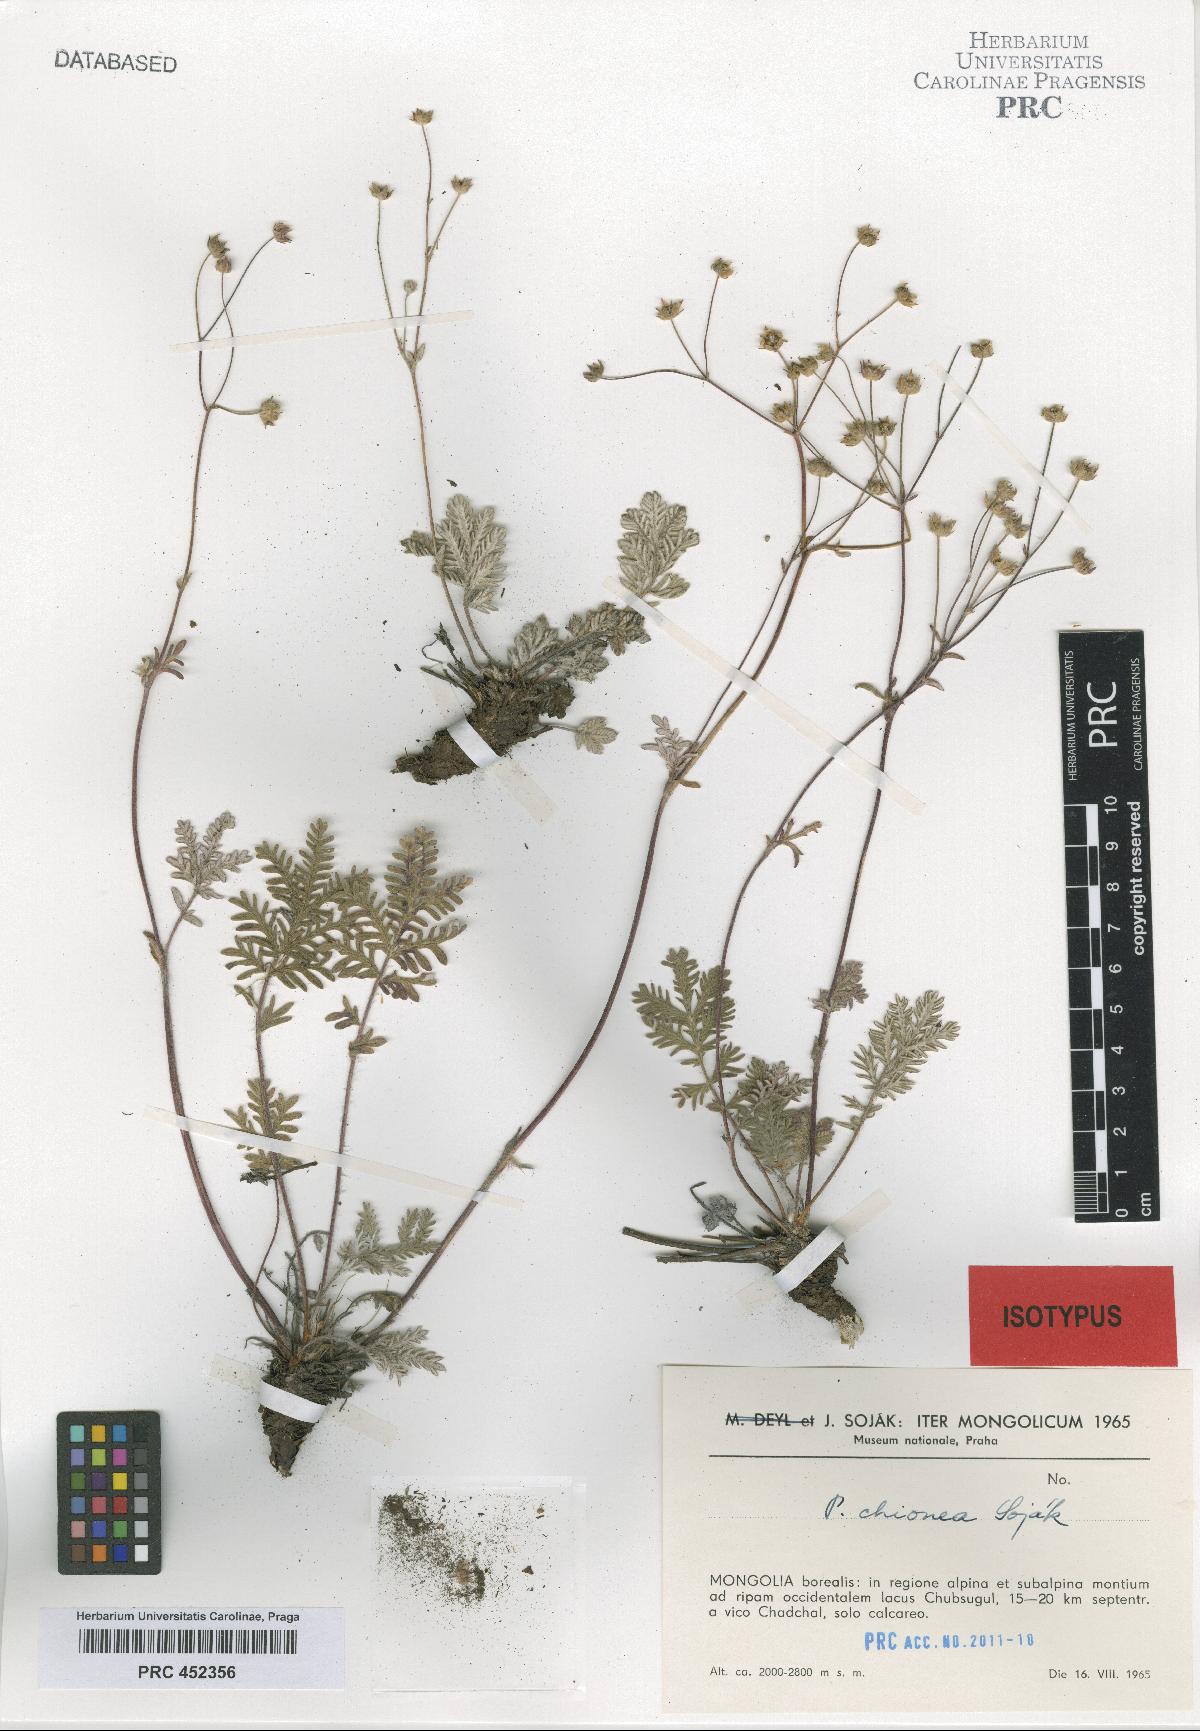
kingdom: Plantae
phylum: Tracheophyta
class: Magnoliopsida
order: Rosales
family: Rosaceae
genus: Potentilla
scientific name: Potentilla chionea
